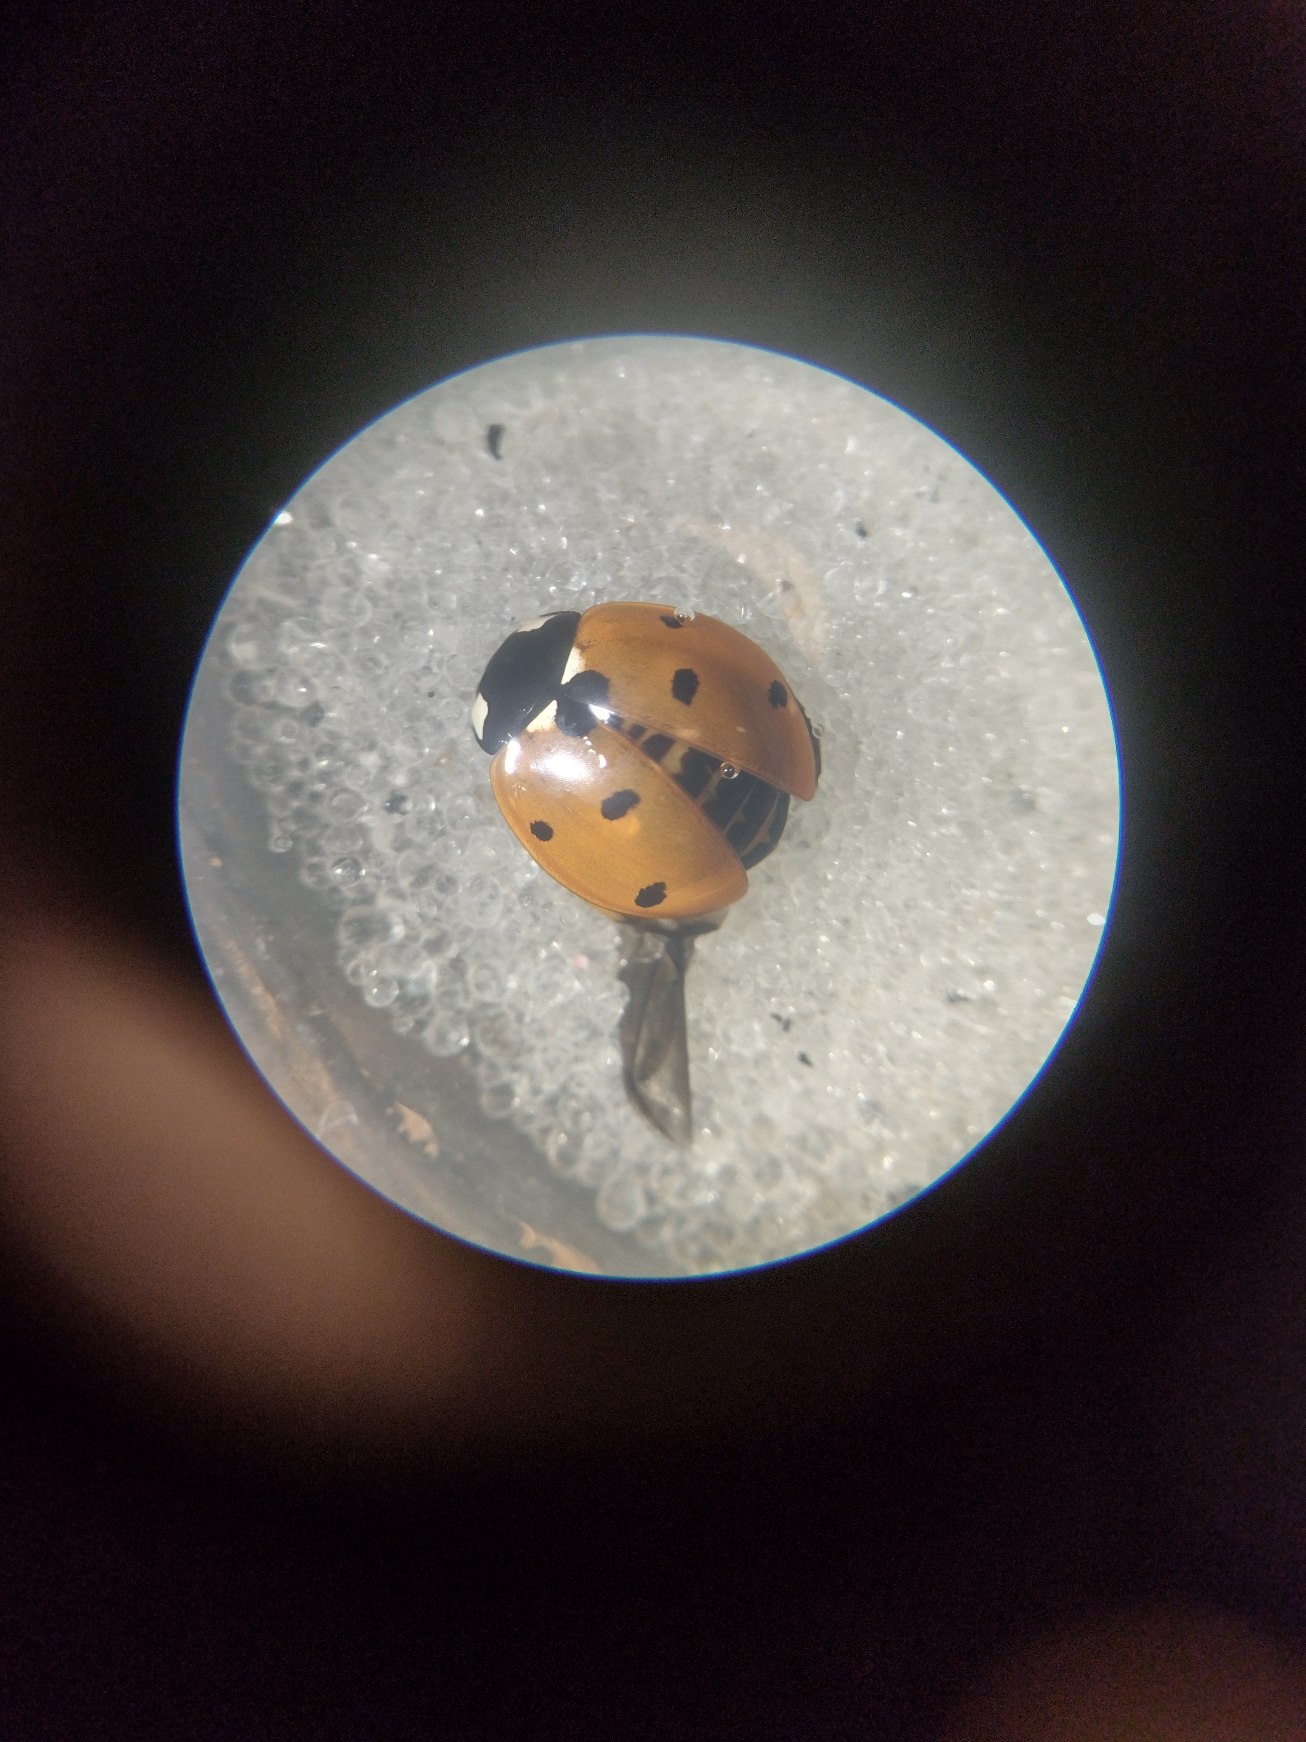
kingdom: Animalia
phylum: Arthropoda
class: Insecta
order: Coleoptera
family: Coccinellidae
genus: Coccinella
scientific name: Coccinella septempunctata
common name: Syvplettet mariehøne
